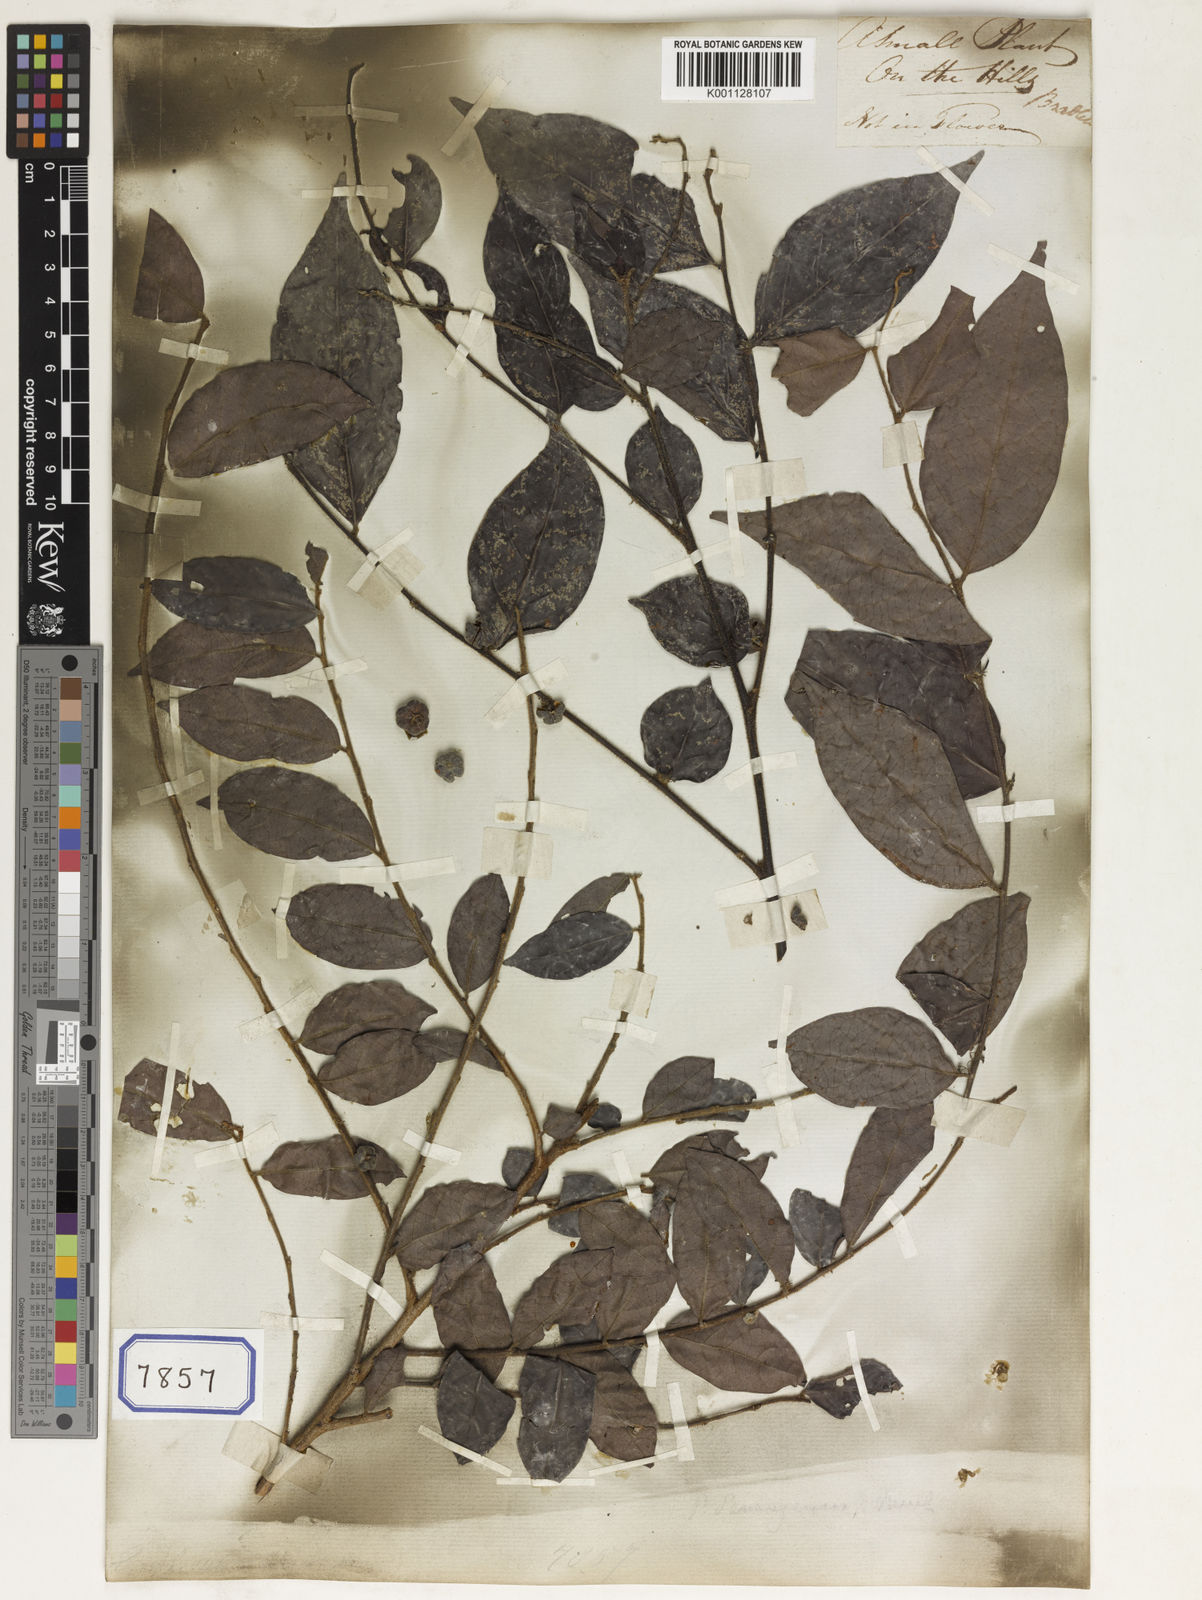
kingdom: Plantae
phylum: Tracheophyta
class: Magnoliopsida
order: Malpighiales
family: Euphorbiaceae
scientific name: Euphorbiaceae
